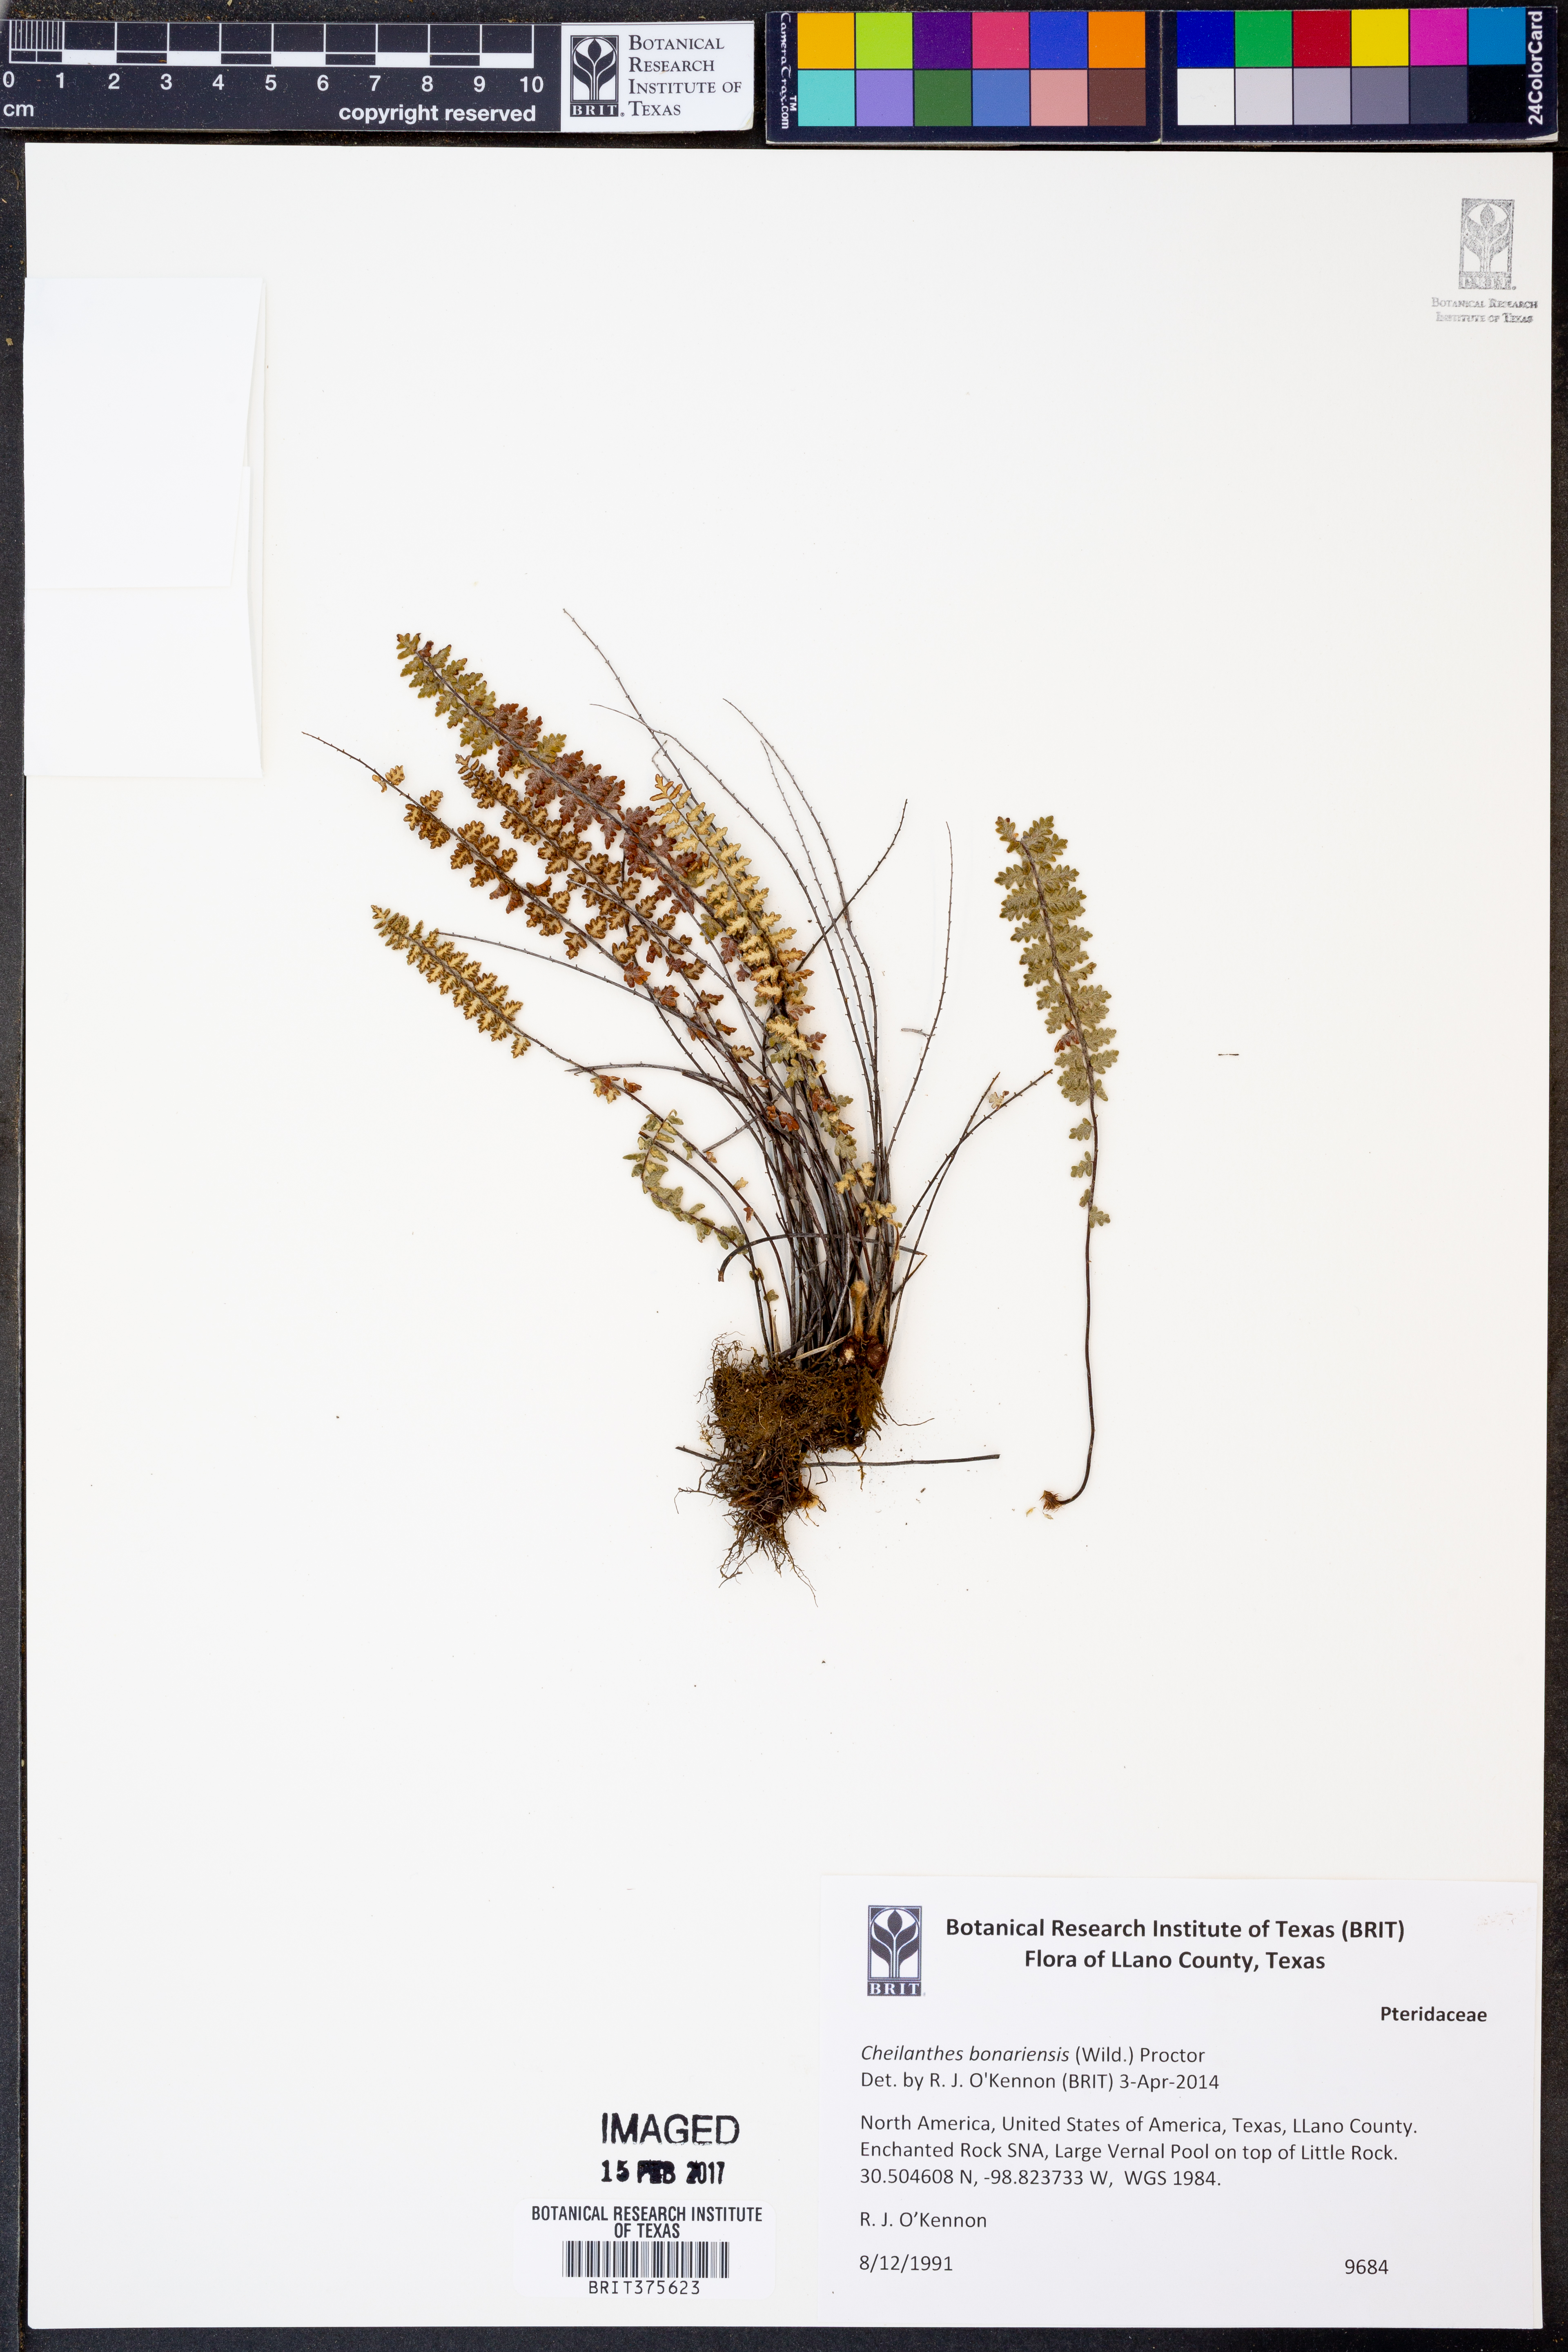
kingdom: Plantae
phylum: Tracheophyta
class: Polypodiopsida
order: Polypodiales
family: Pteridaceae
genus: Myriopteris
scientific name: Myriopteris aurea
